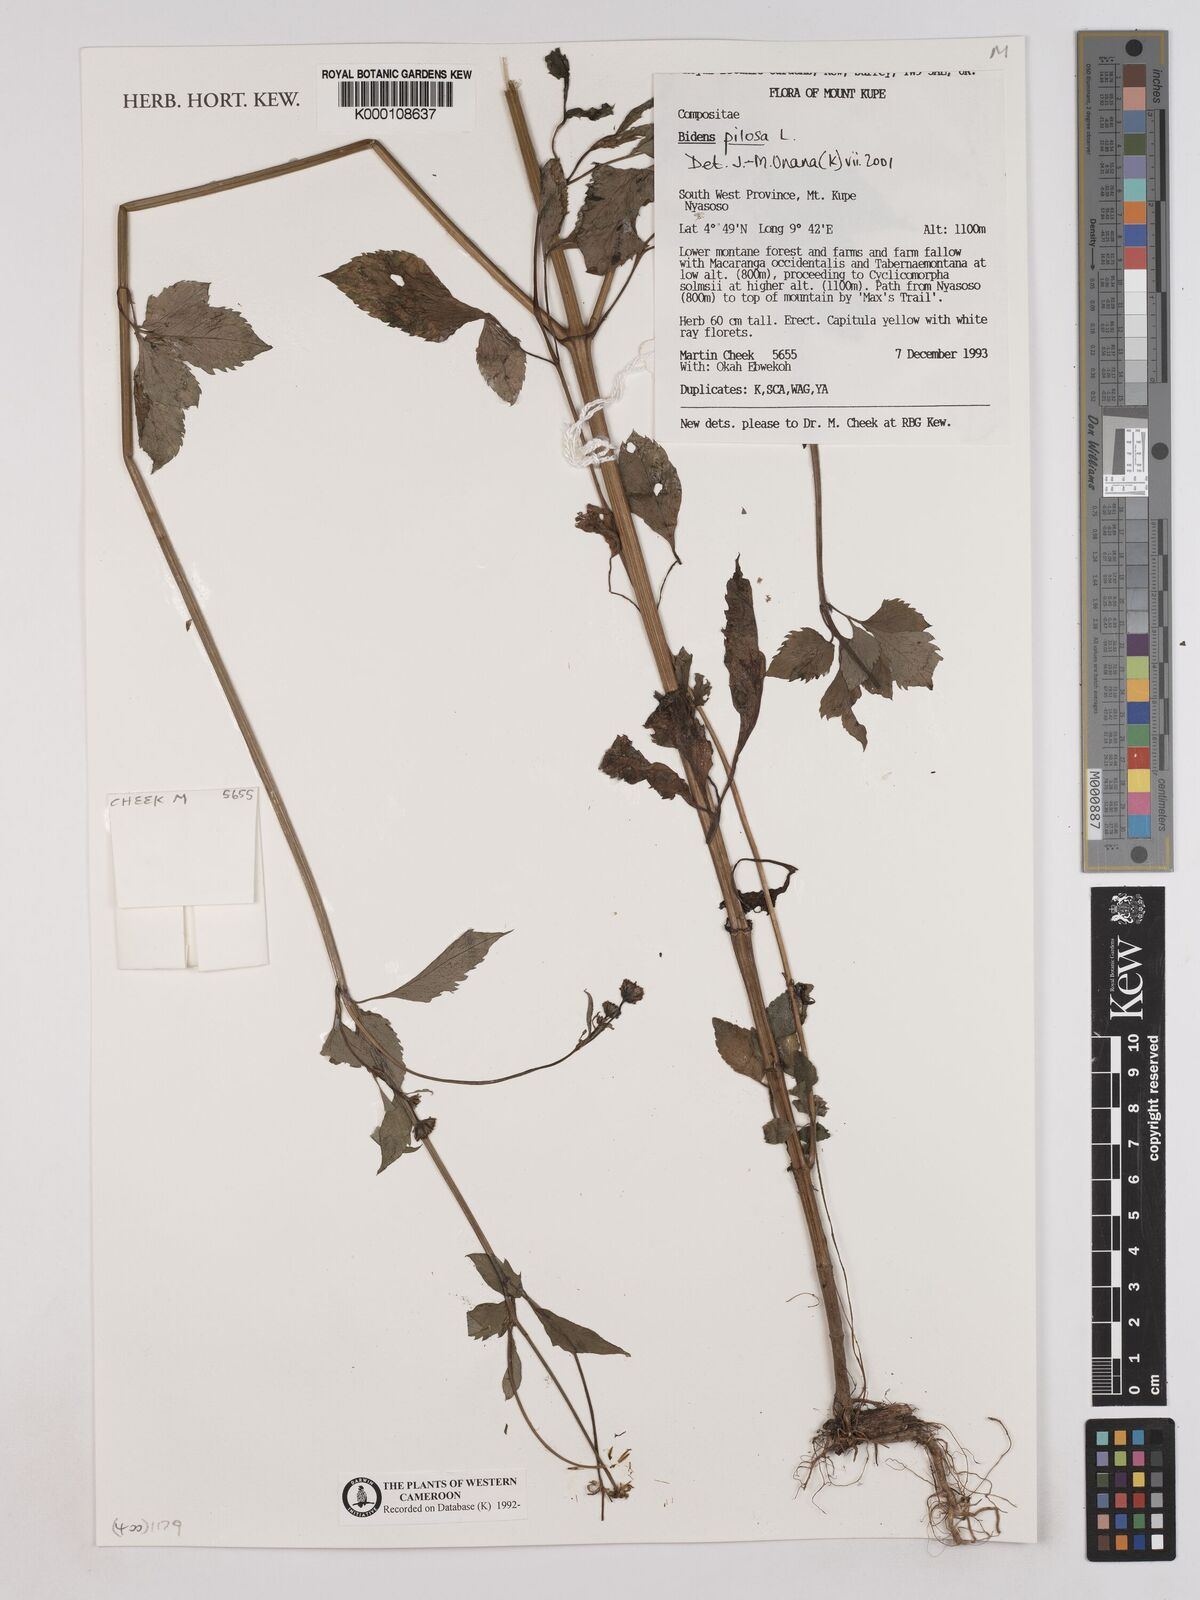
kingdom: Plantae
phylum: Tracheophyta
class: Magnoliopsida
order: Asterales
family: Asteraceae
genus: Bidens
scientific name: Bidens pilosa
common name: Black-jack
